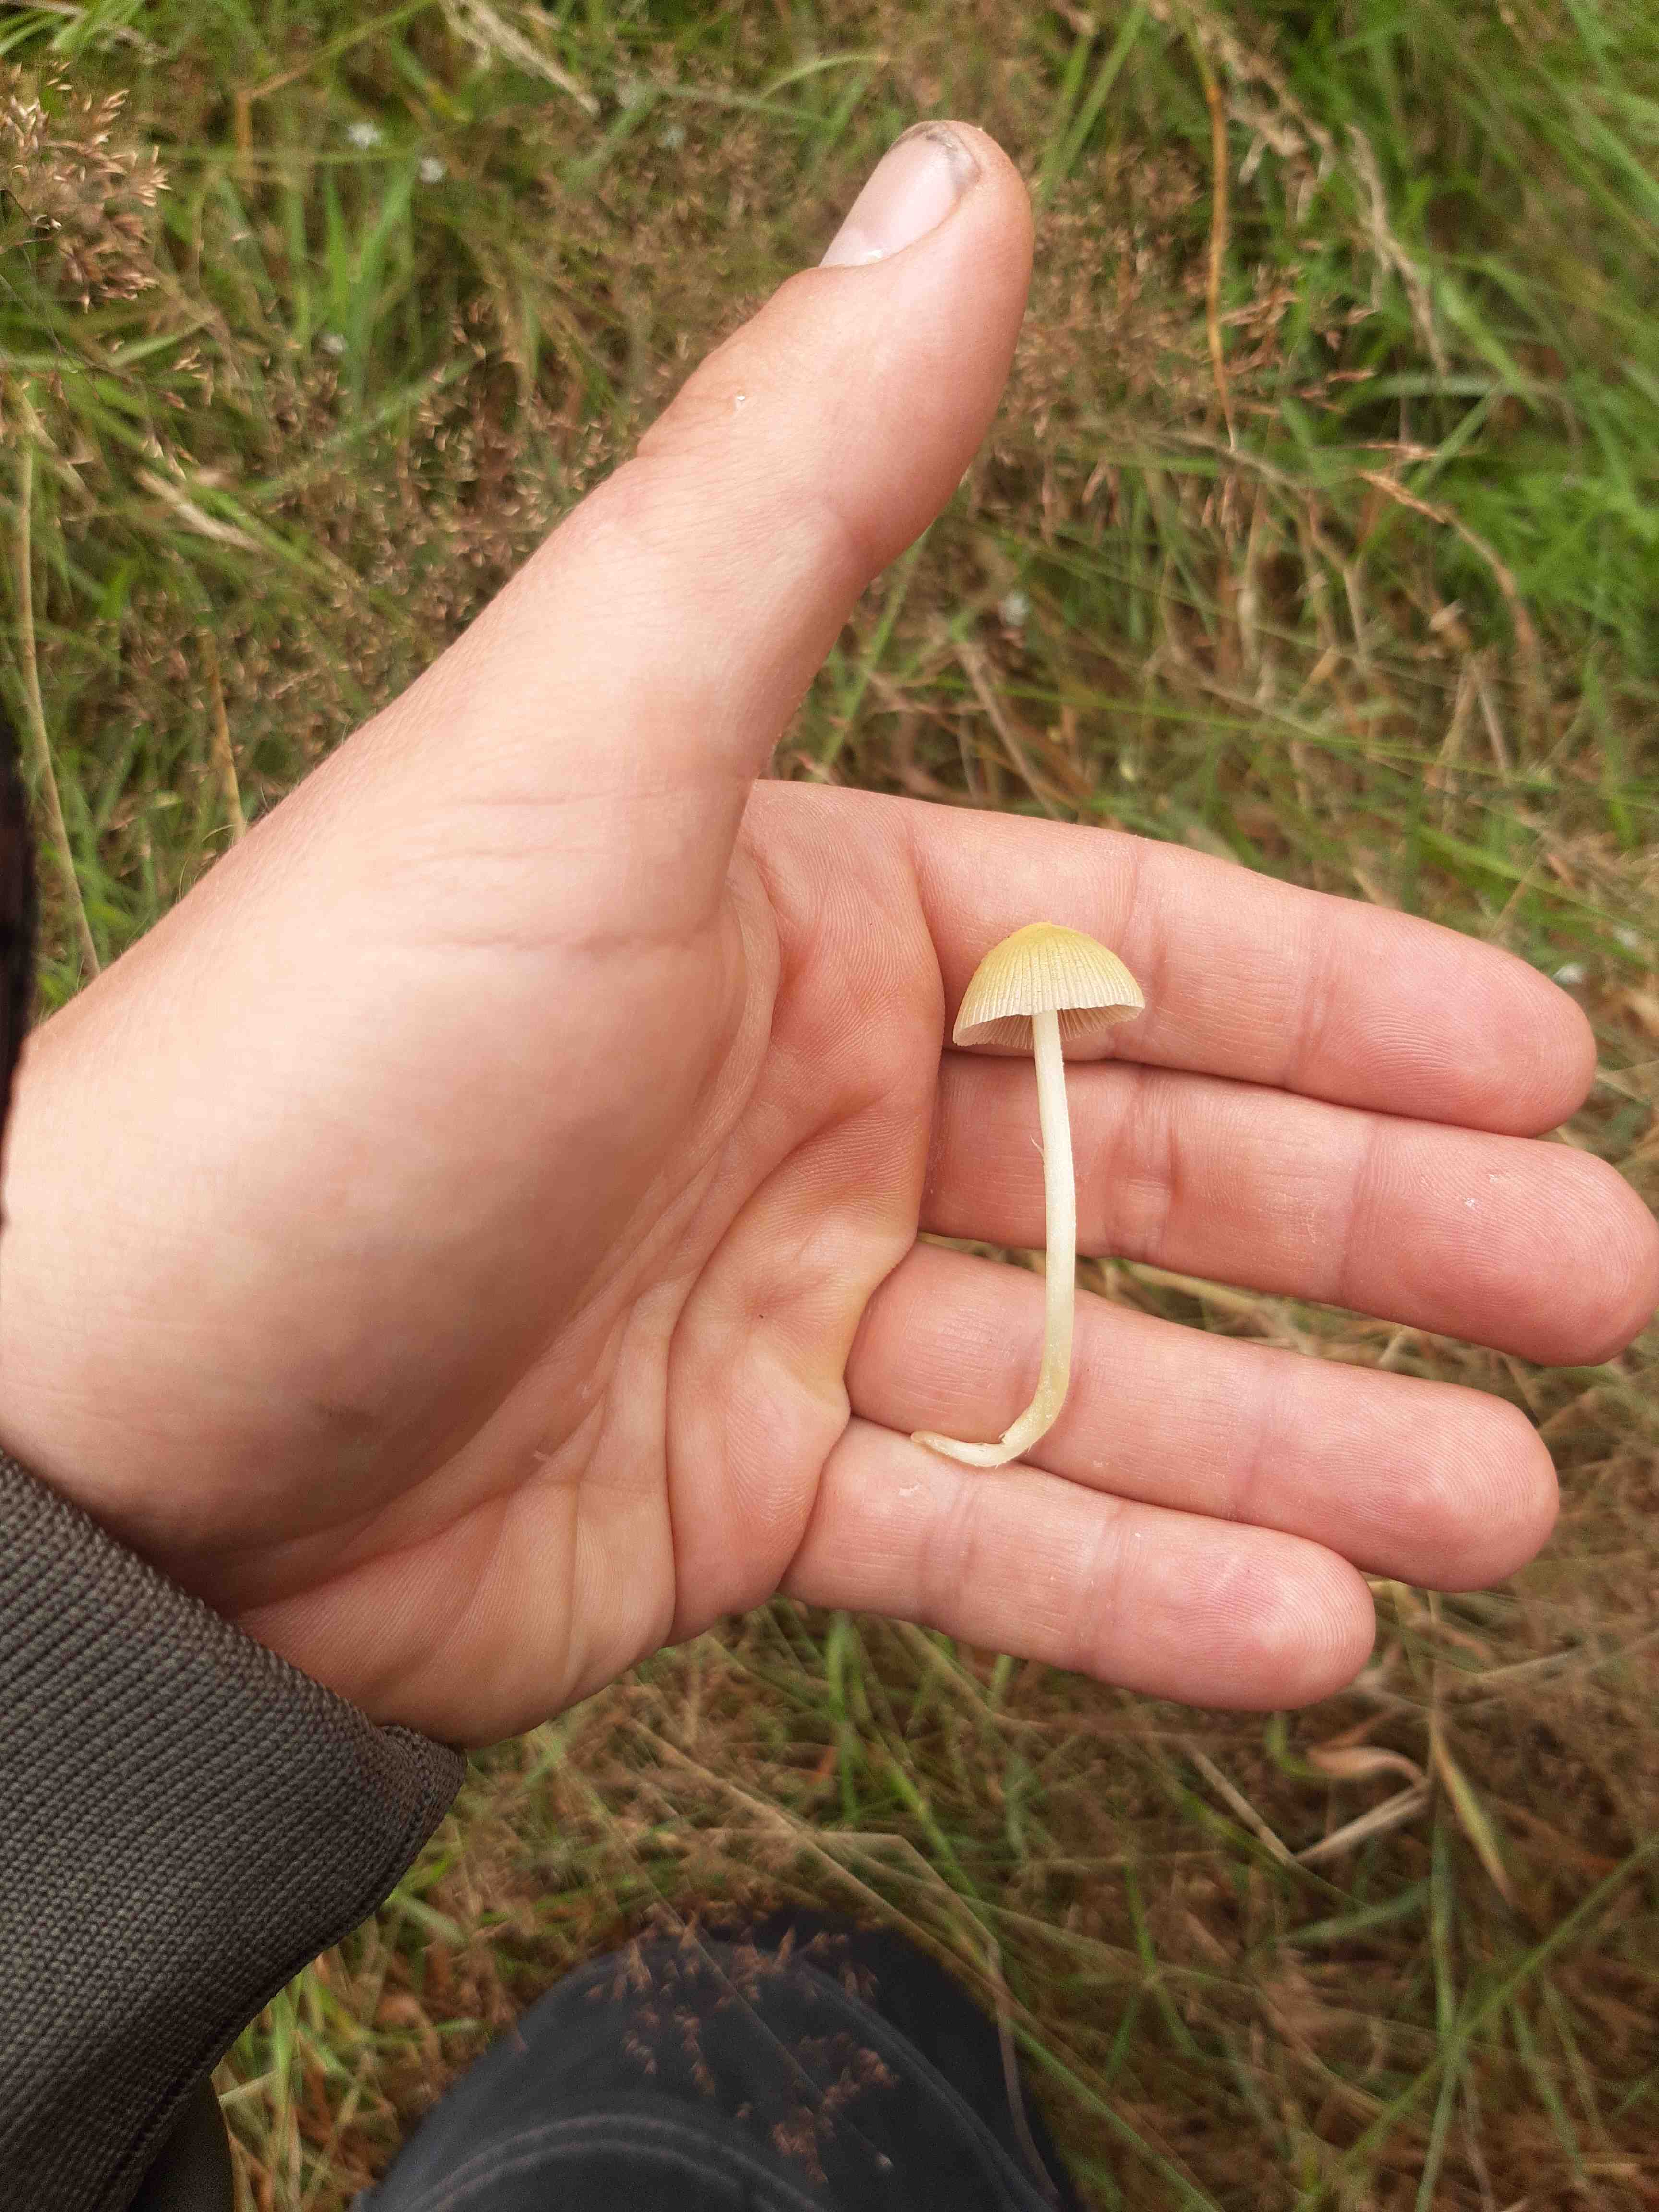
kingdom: Fungi
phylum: Basidiomycota
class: Agaricomycetes
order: Agaricales
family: Bolbitiaceae
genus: Bolbitius
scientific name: Bolbitius titubans
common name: almindelig gulhat
